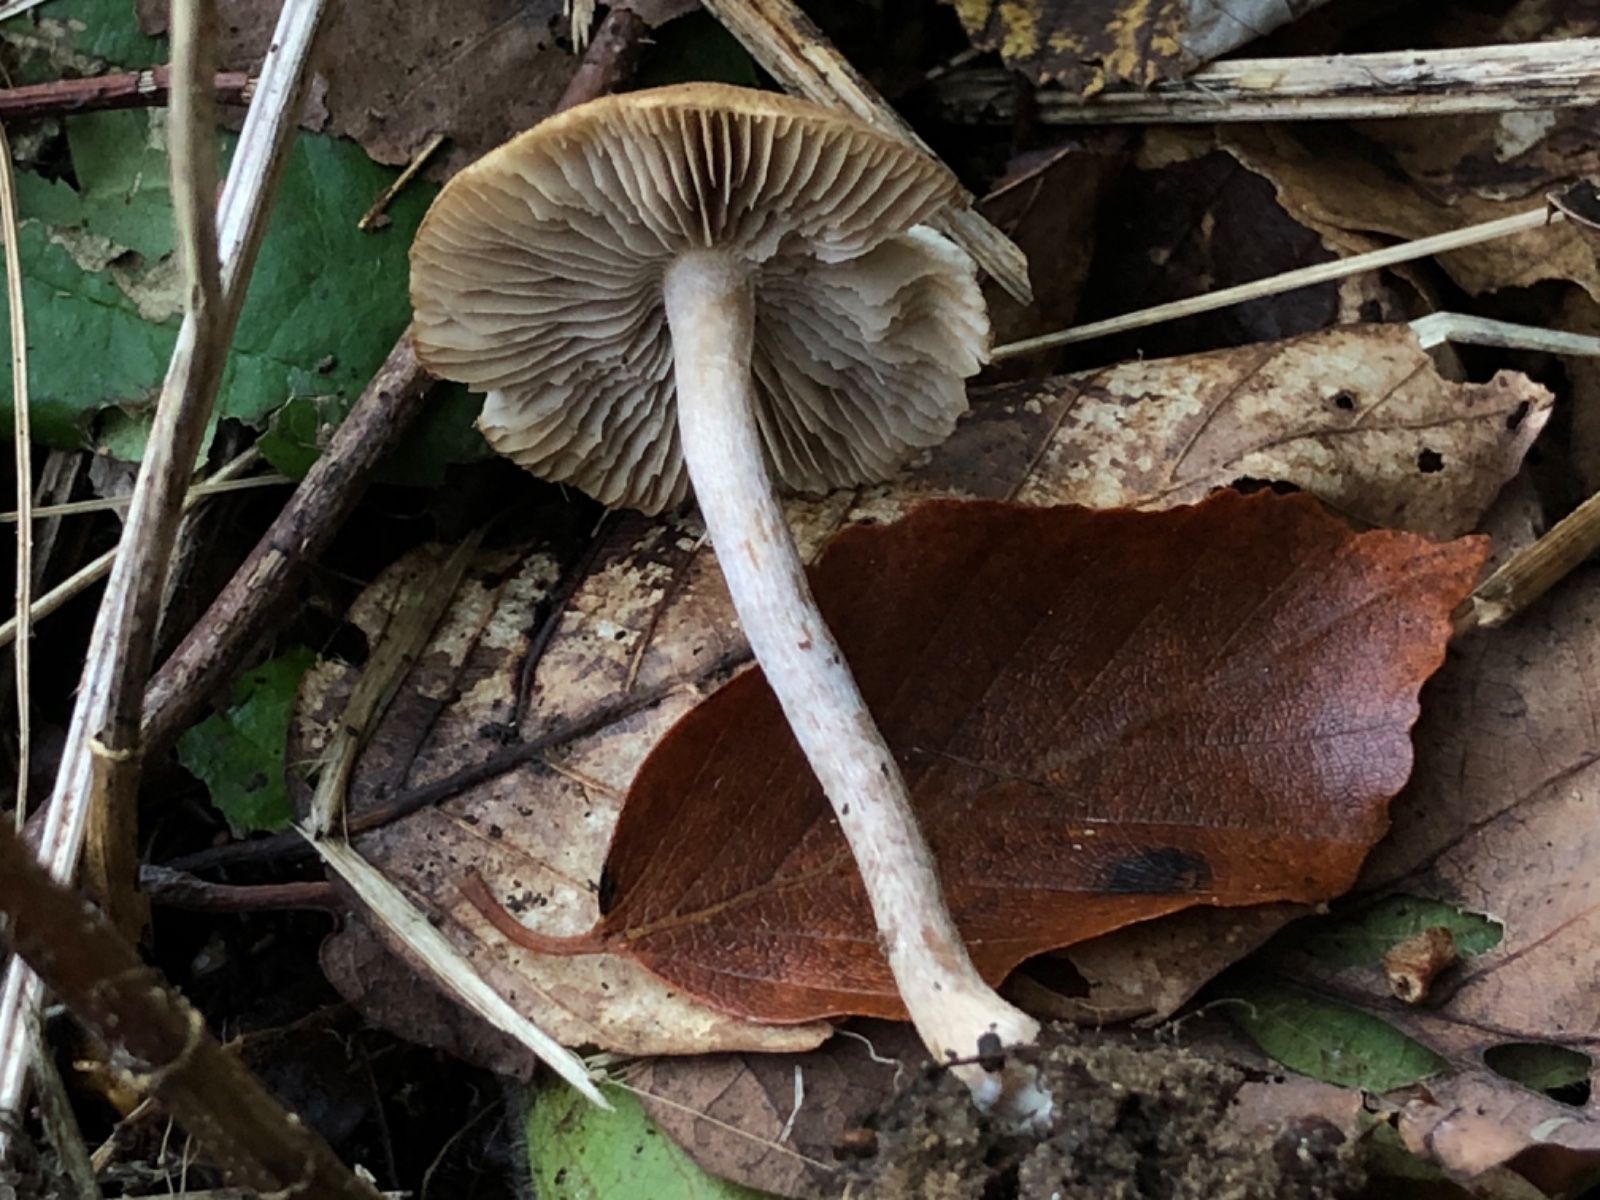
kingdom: Fungi
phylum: Basidiomycota
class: Agaricomycetes
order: Agaricales
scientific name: Agaricales
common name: champignonordenen
